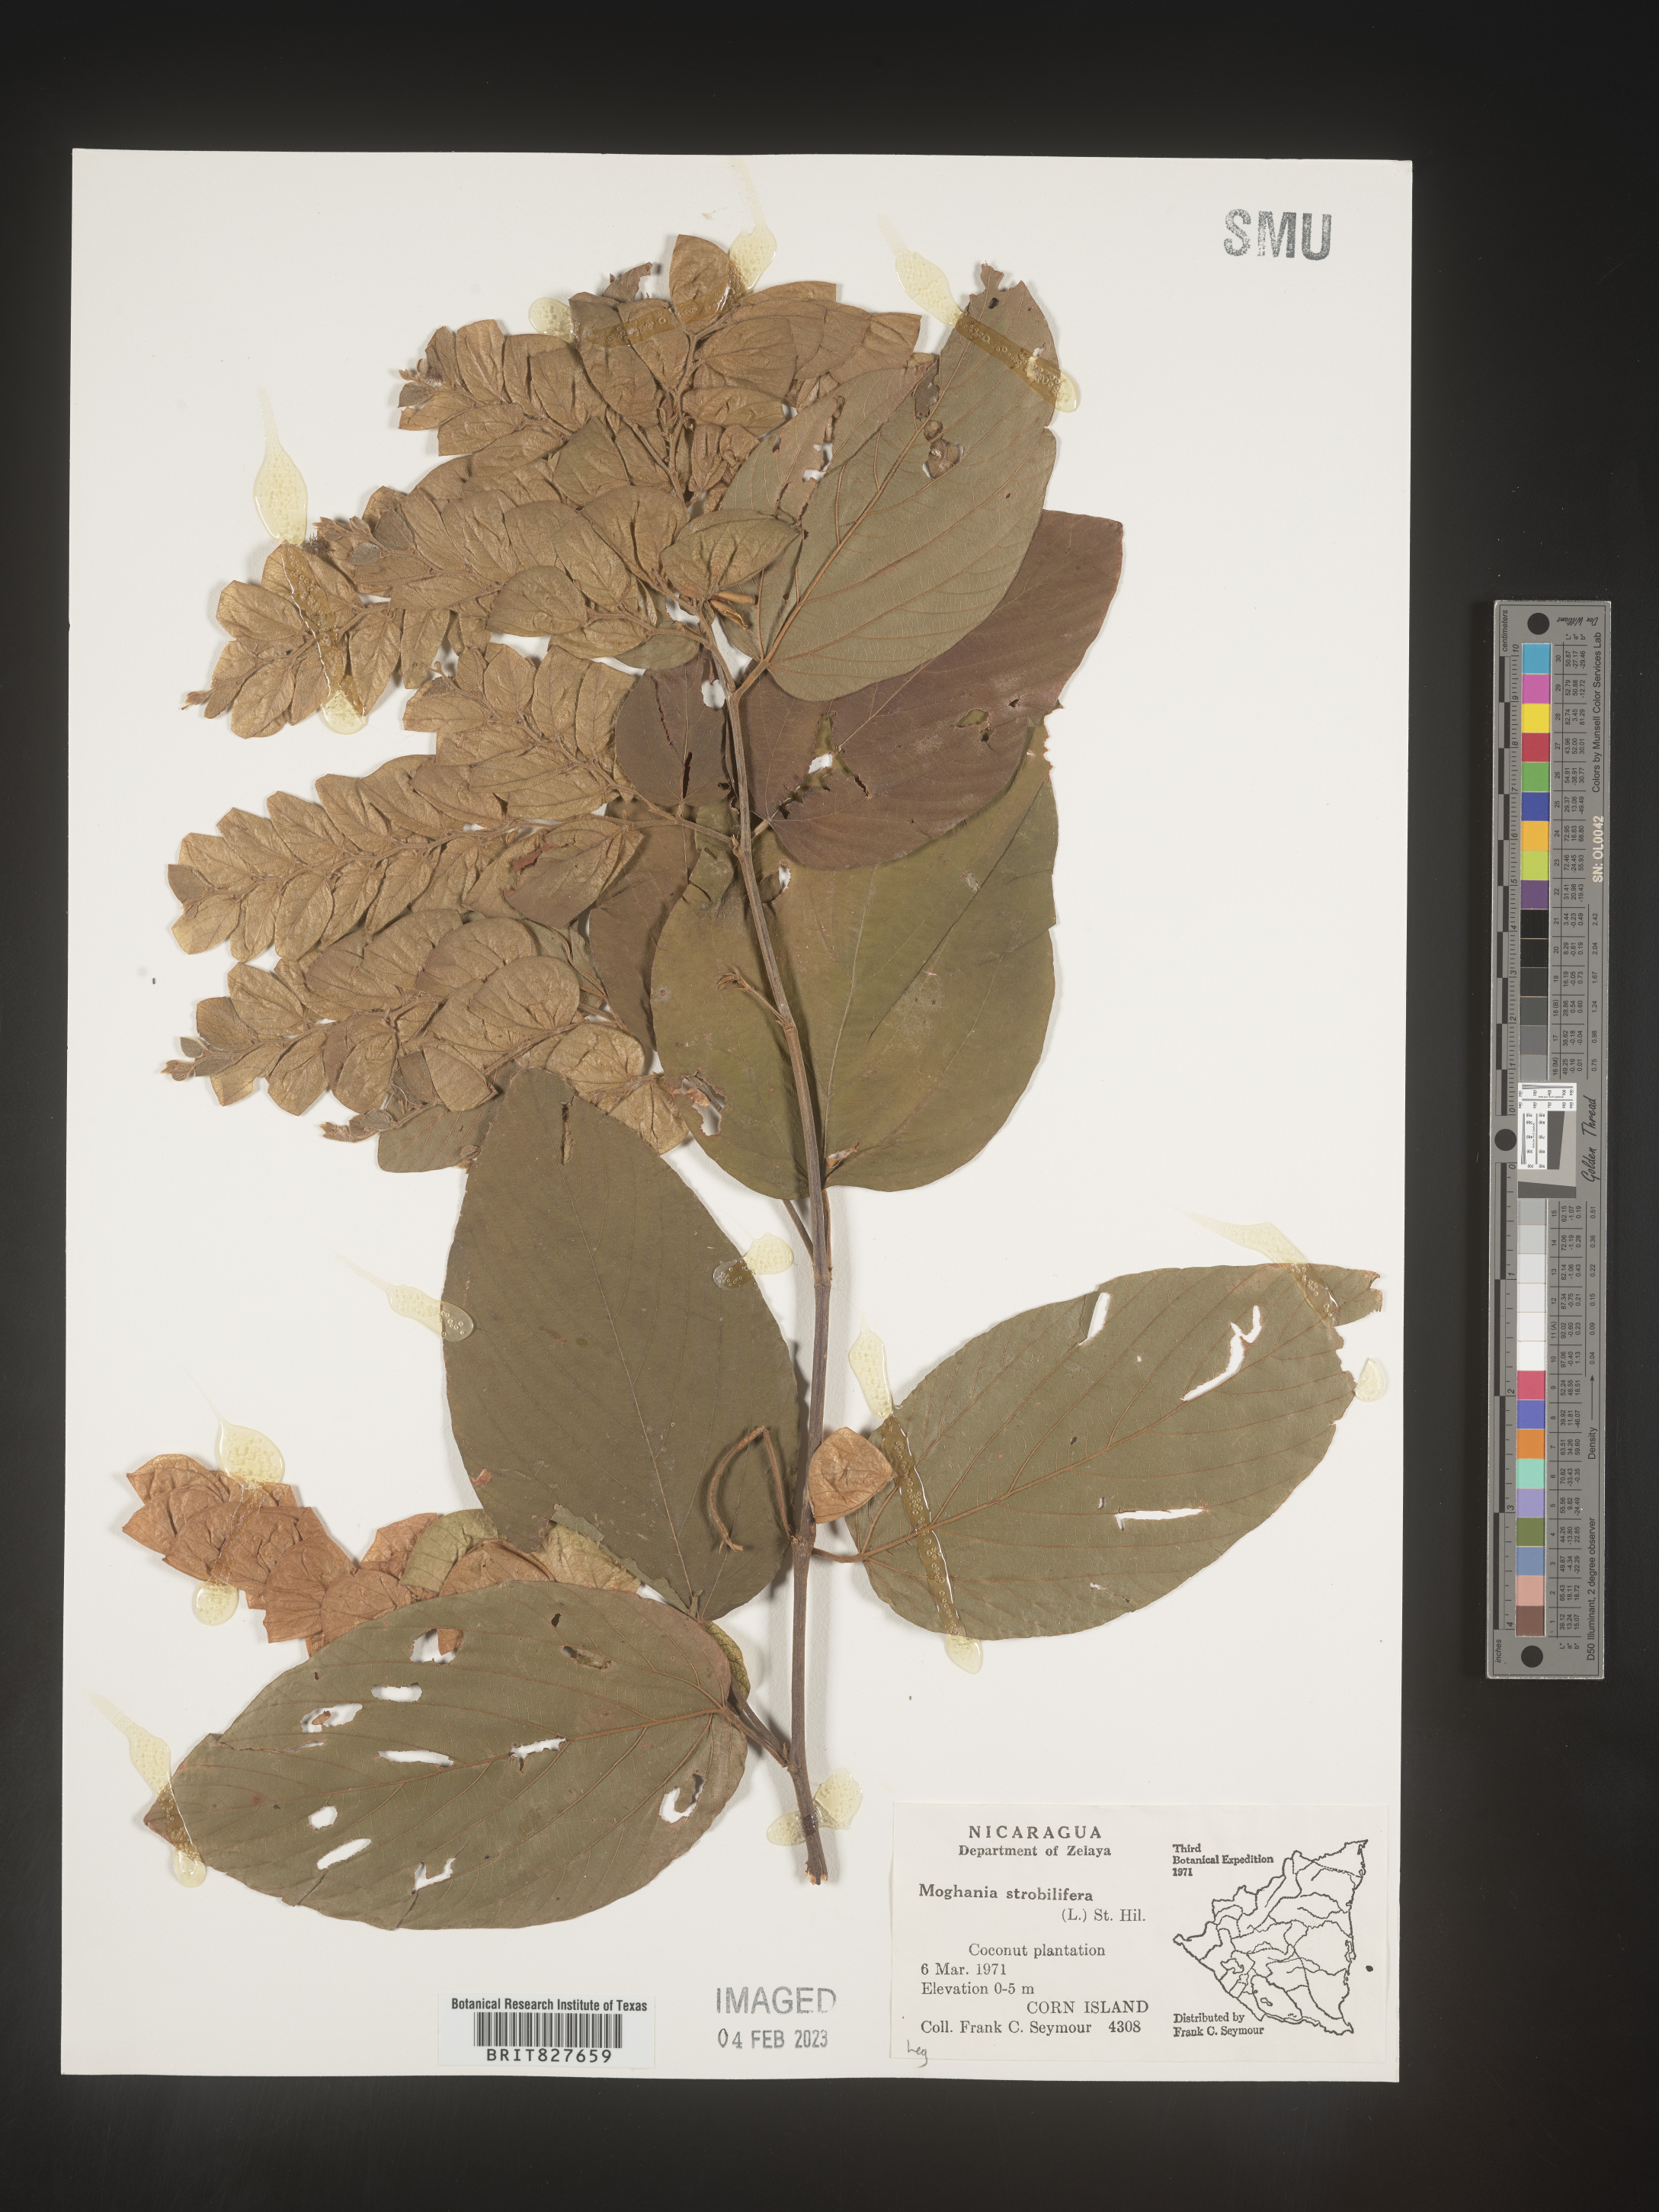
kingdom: Plantae
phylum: Tracheophyta
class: Magnoliopsida
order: Fabales
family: Fabaceae
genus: Flemingia
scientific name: Flemingia
